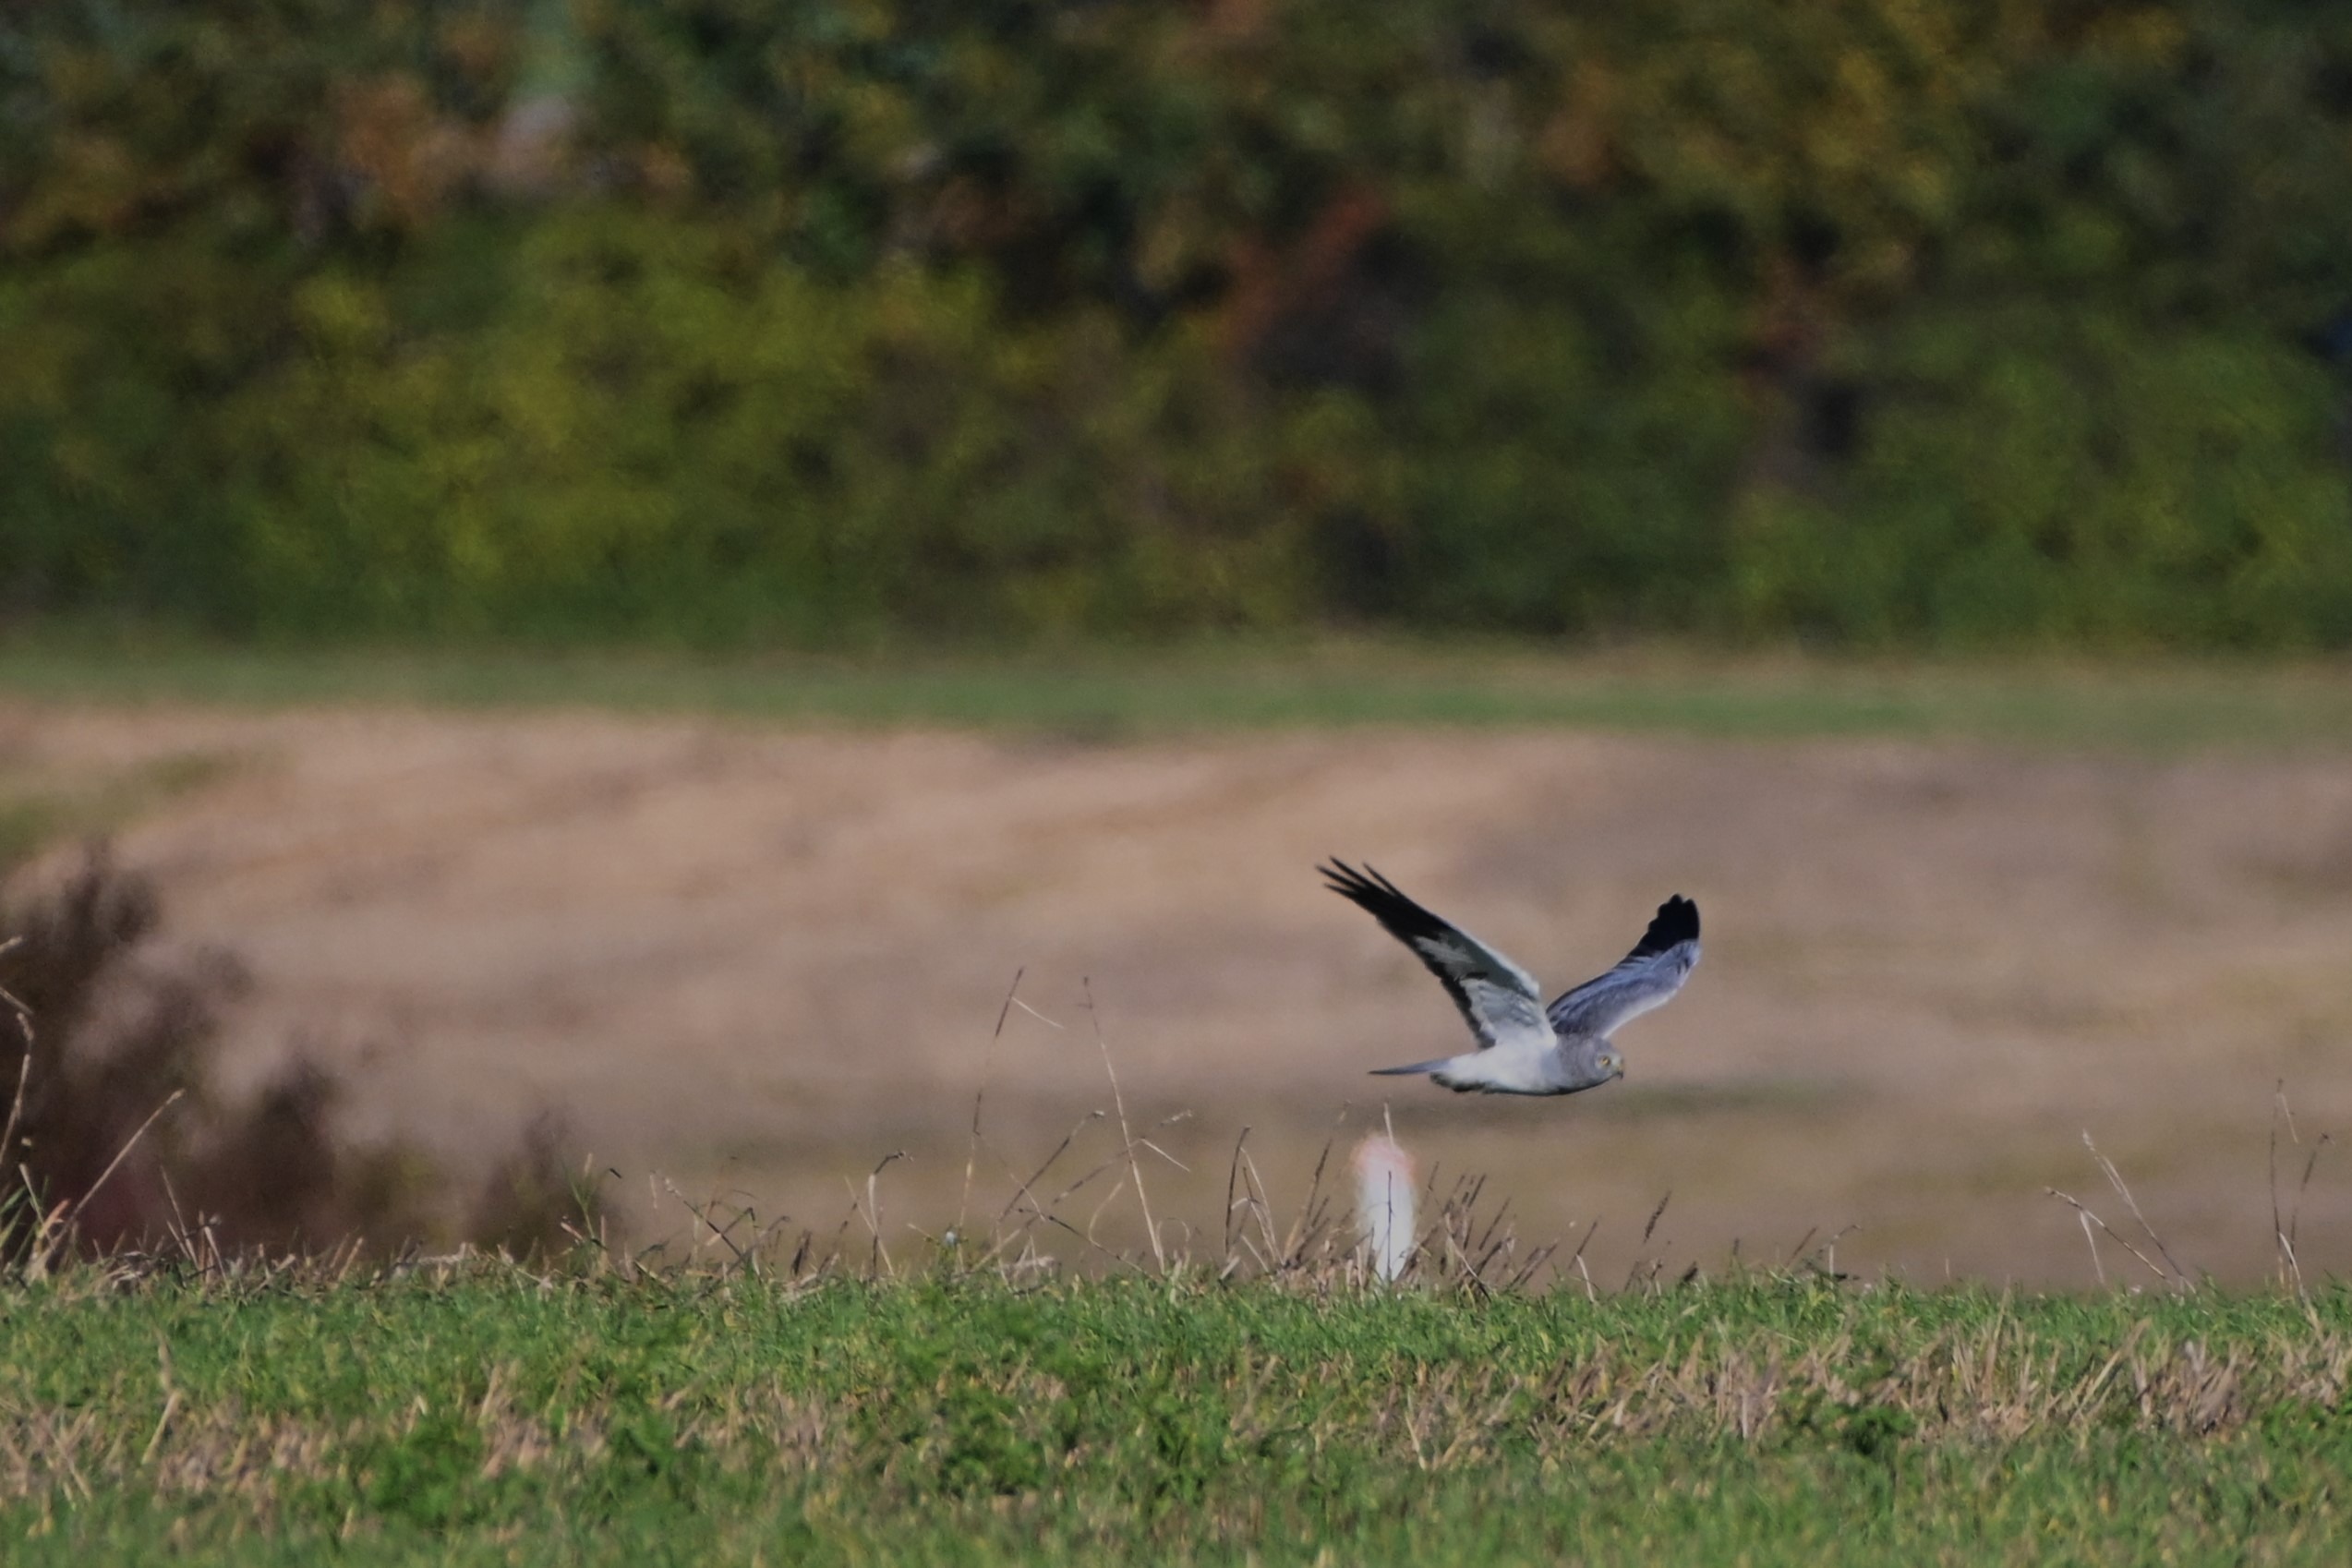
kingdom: Animalia
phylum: Chordata
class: Aves
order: Accipitriformes
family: Accipitridae
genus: Circus
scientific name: Circus cyaneus
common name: Blå kærhøg
